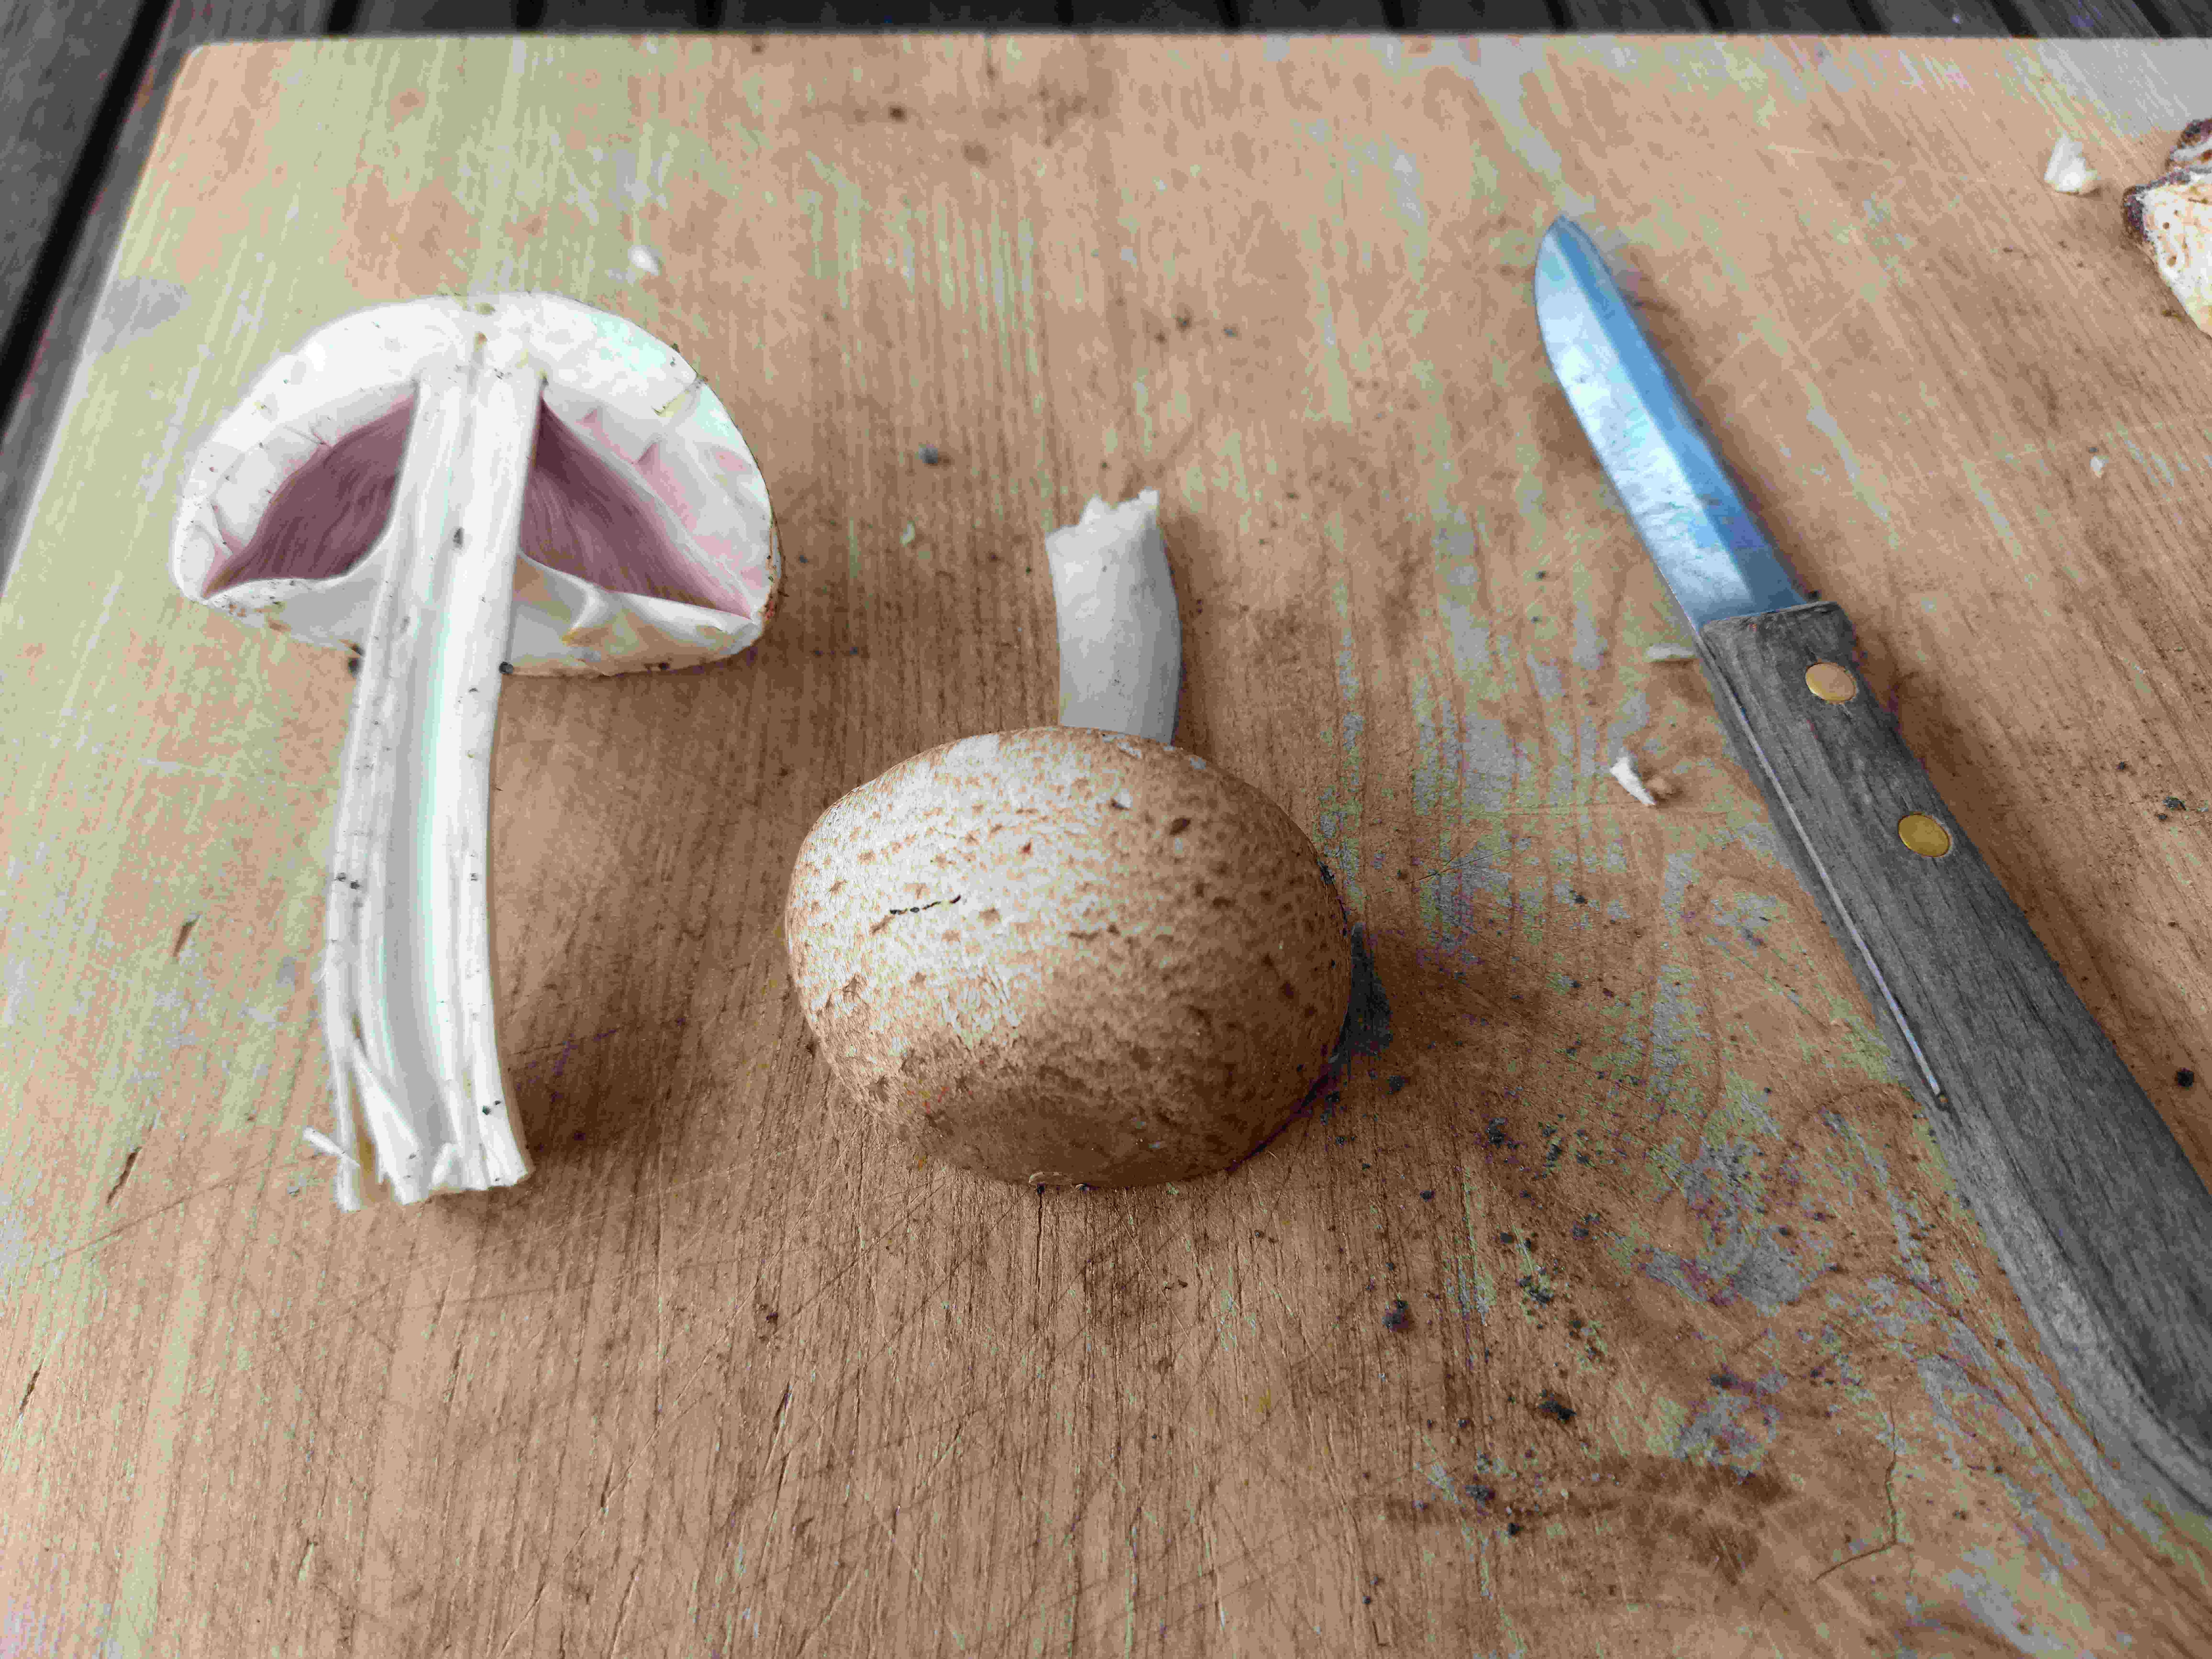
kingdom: Fungi
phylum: Basidiomycota
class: Agaricomycetes
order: Agaricales
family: Agaricaceae
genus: Agaricus
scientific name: Agaricus
